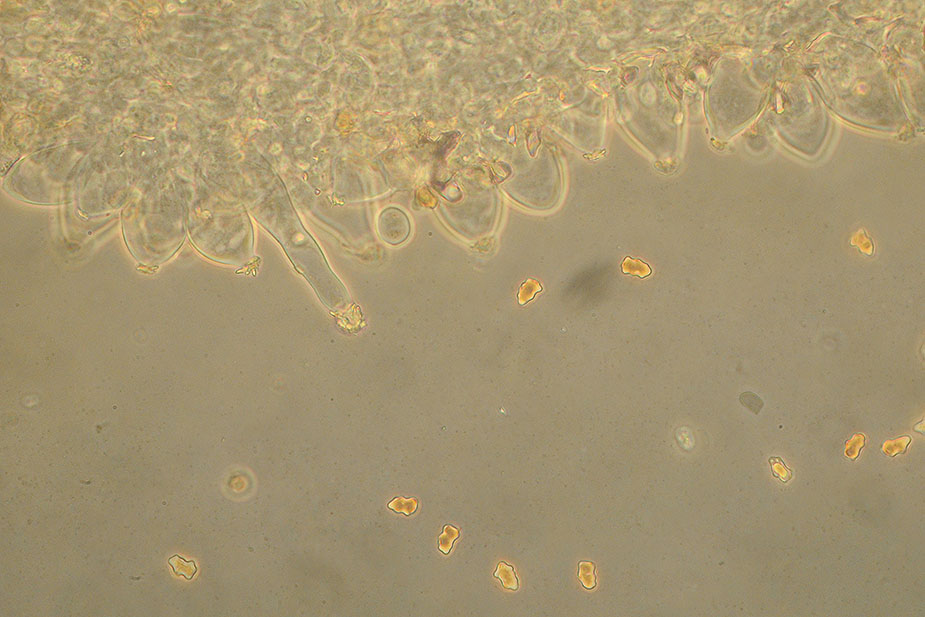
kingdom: Fungi
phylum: Basidiomycota
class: Agaricomycetes
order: Agaricales
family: Inocybaceae
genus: Inocybe
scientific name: Inocybe curvipes
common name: plæne-trævlhat
